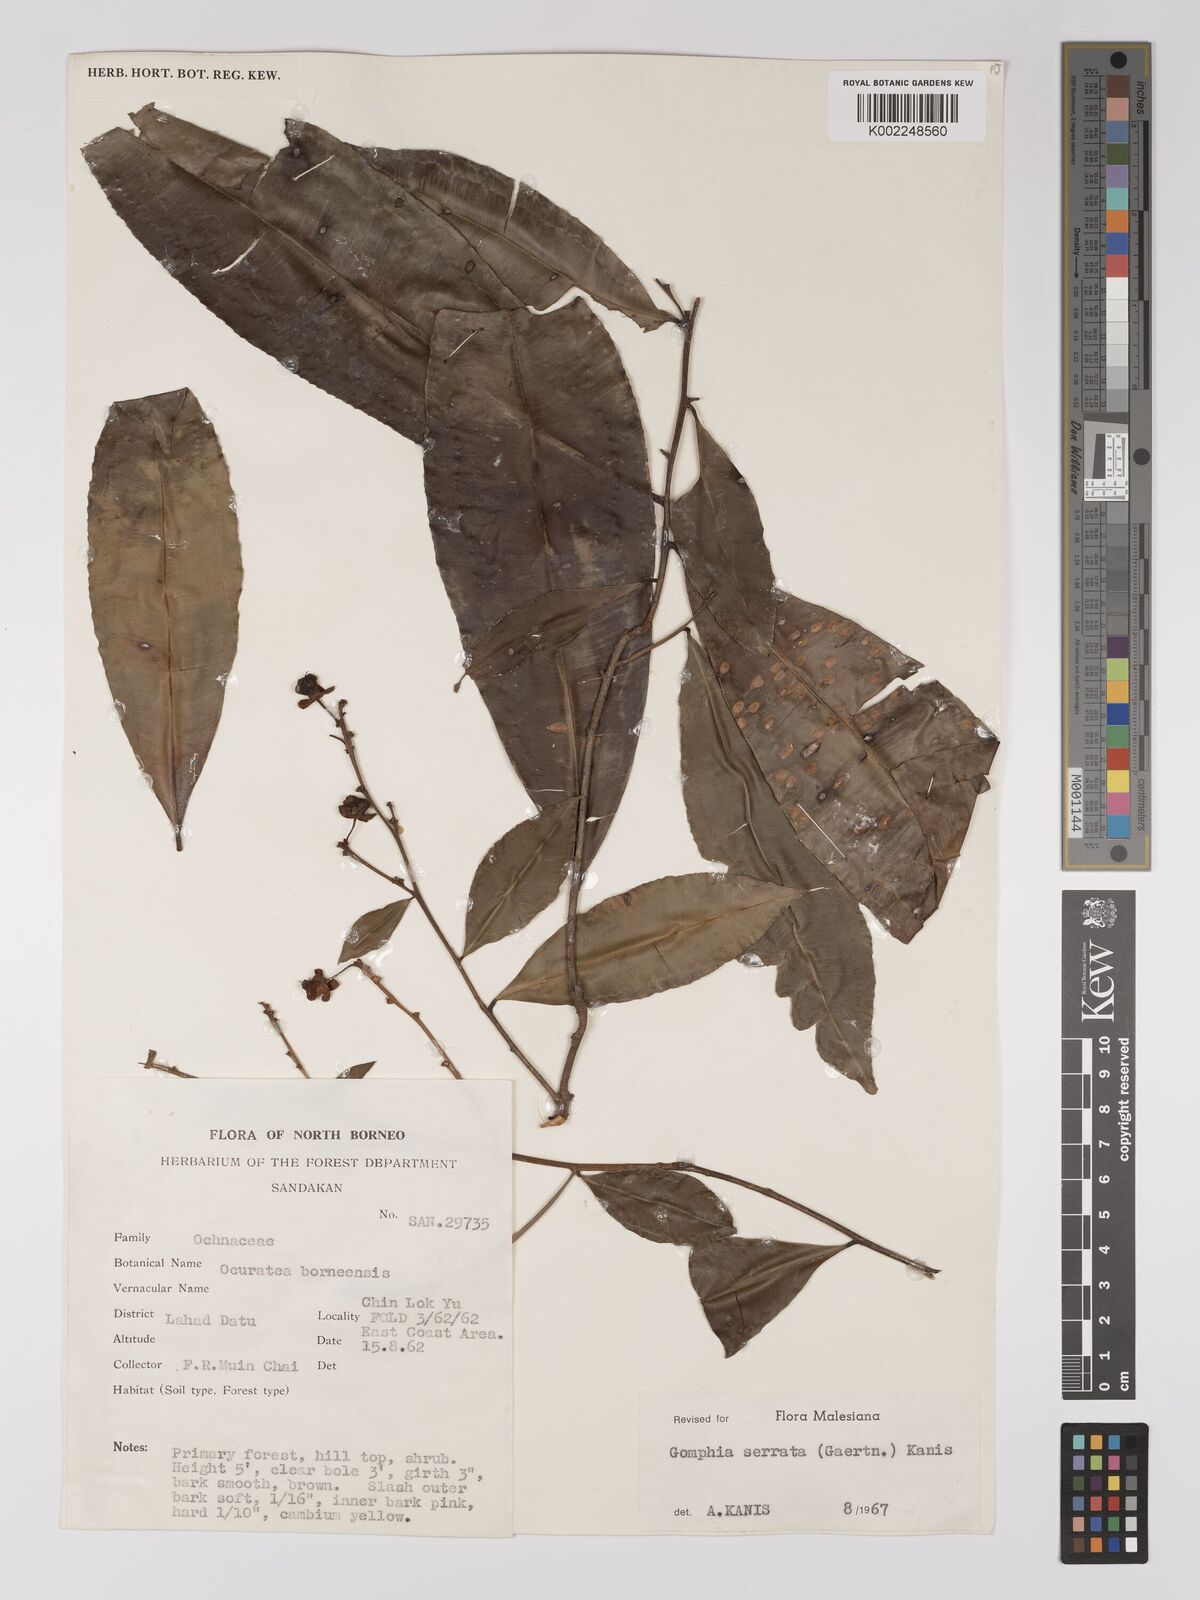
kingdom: Plantae
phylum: Tracheophyta
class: Magnoliopsida
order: Malpighiales
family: Ochnaceae
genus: Gomphia
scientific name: Gomphia serrata
